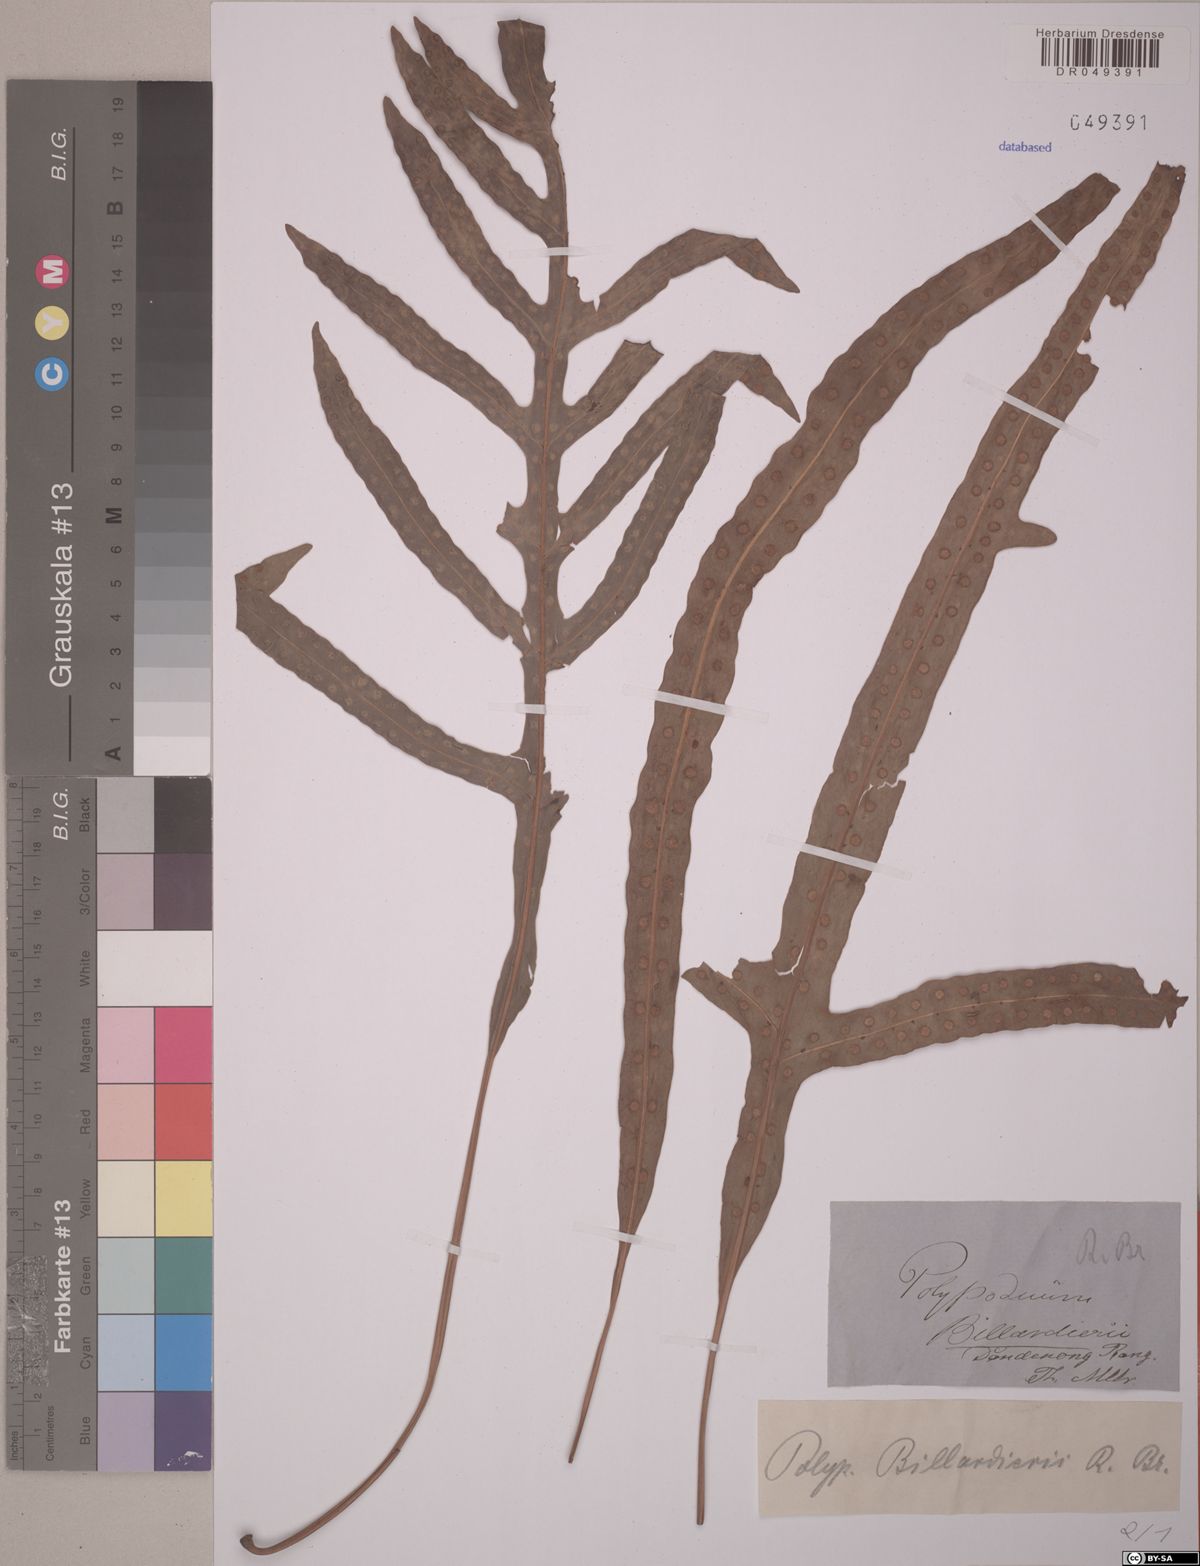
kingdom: Plantae
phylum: Tracheophyta
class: Polypodiopsida
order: Polypodiales
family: Polypodiaceae
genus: Notogrammitis
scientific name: Notogrammitis billardierei
